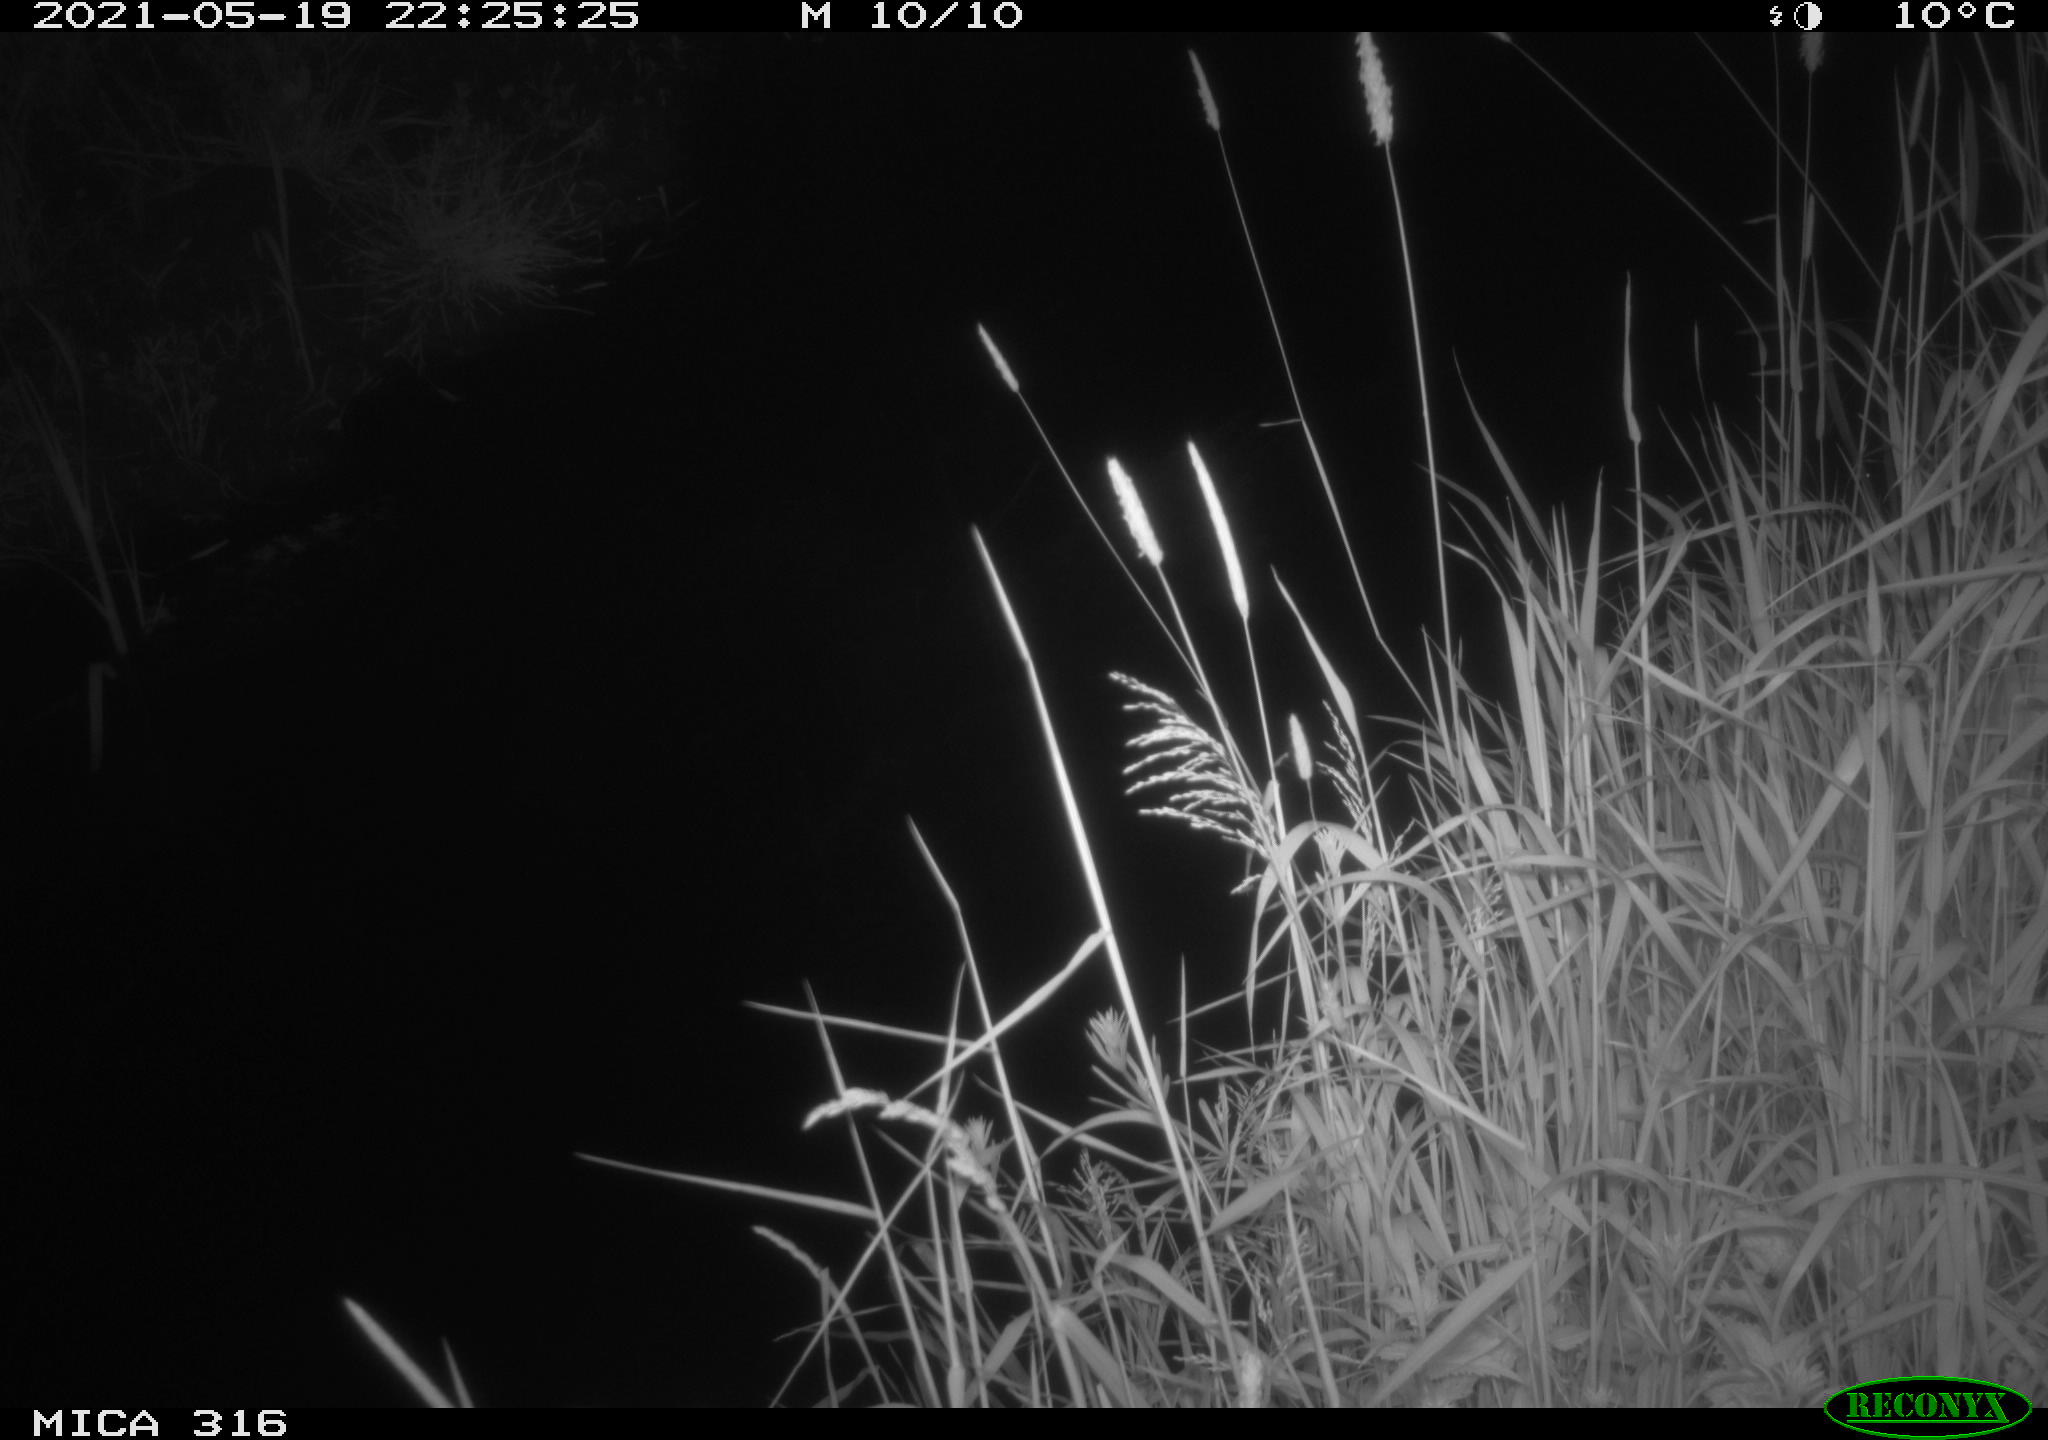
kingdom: Animalia
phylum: Chordata
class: Aves
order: Anseriformes
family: Anatidae
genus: Anas
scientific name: Anas platyrhynchos
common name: Mallard
